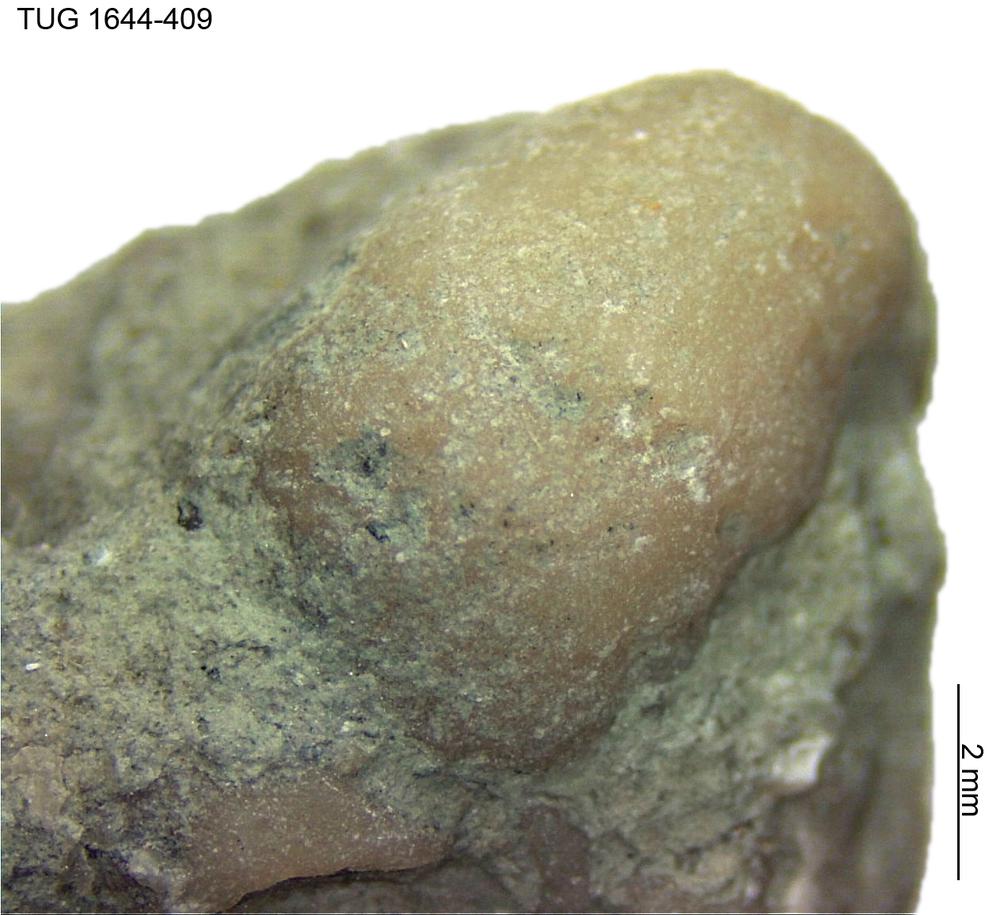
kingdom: Animalia
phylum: Porifera
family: Chaetetidae
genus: Solenopora
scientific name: Solenopora
